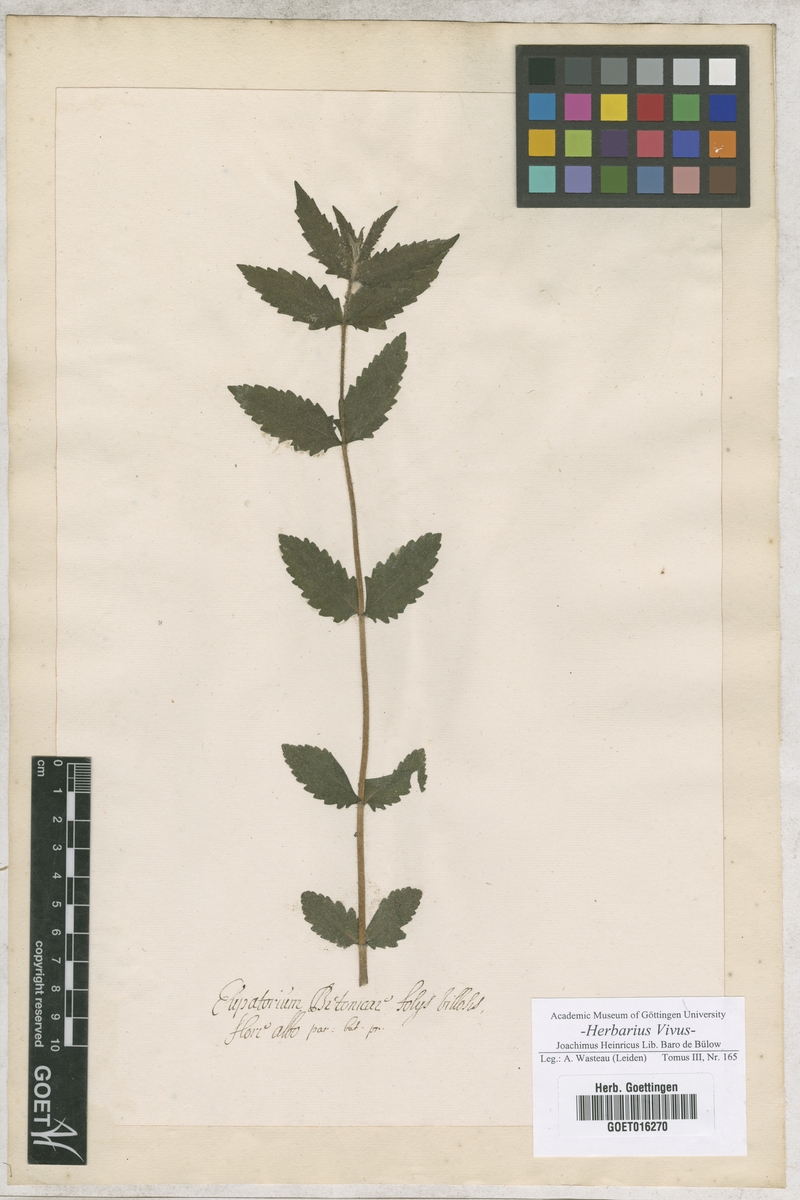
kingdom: Plantae
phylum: Tracheophyta
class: Magnoliopsida
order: Asterales
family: Asteraceae
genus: Eupatorium
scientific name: Eupatorium
